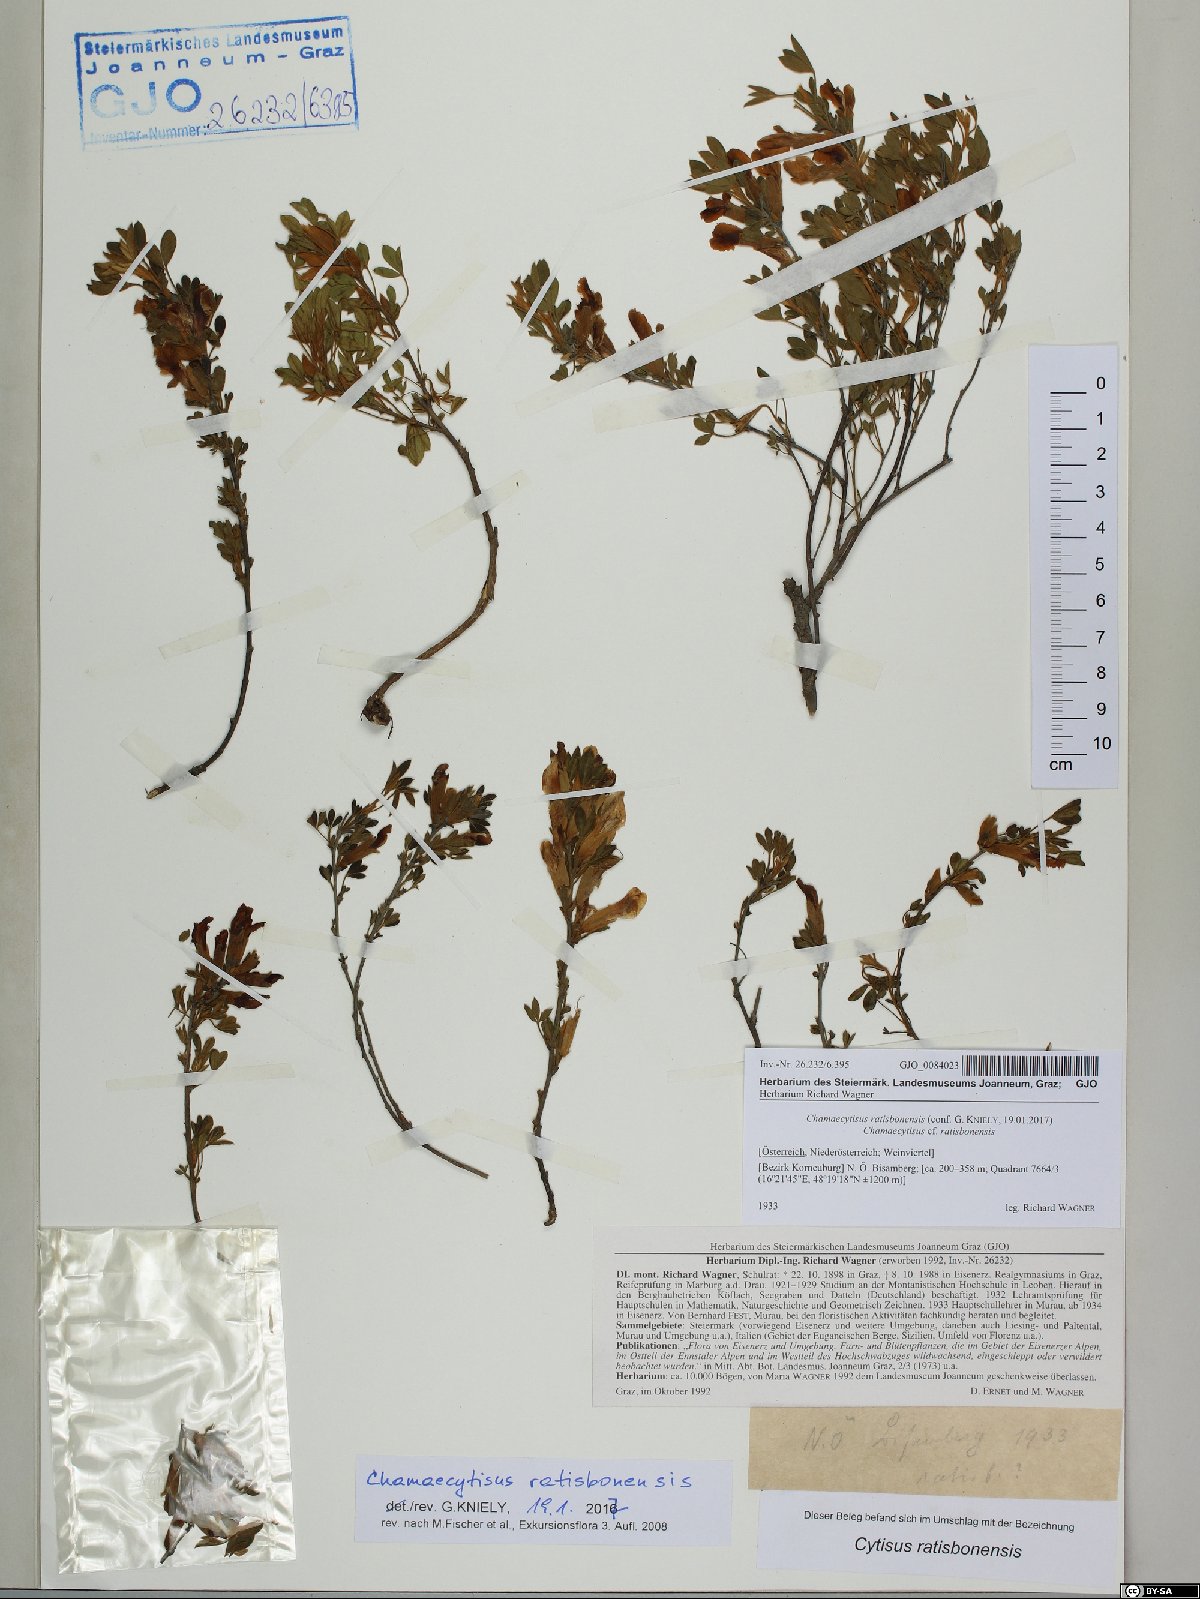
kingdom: Plantae
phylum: Tracheophyta
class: Magnoliopsida
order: Fabales
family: Fabaceae
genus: Chamaecytisus
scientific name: Chamaecytisus ratisbonensis
